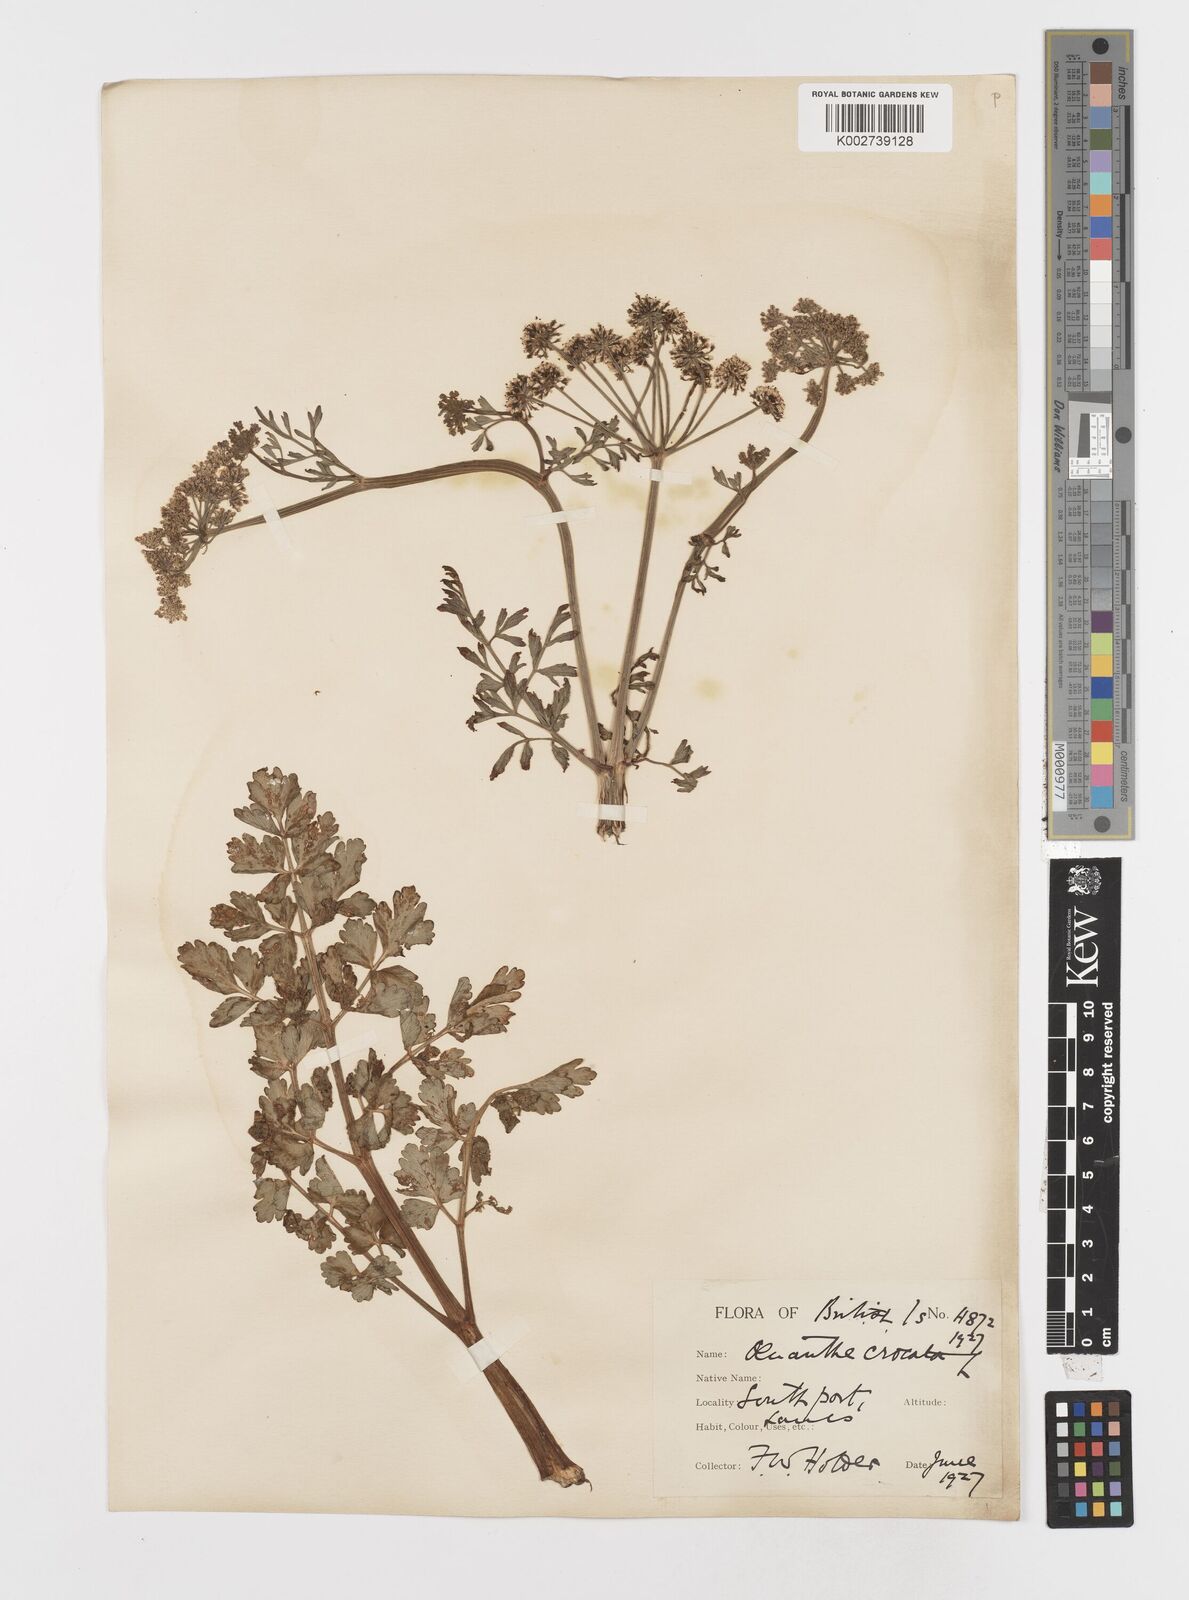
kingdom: Plantae
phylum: Tracheophyta
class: Magnoliopsida
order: Apiales
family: Apiaceae
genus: Oenanthe
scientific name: Oenanthe crocata
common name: Hemlock water-dropwort
